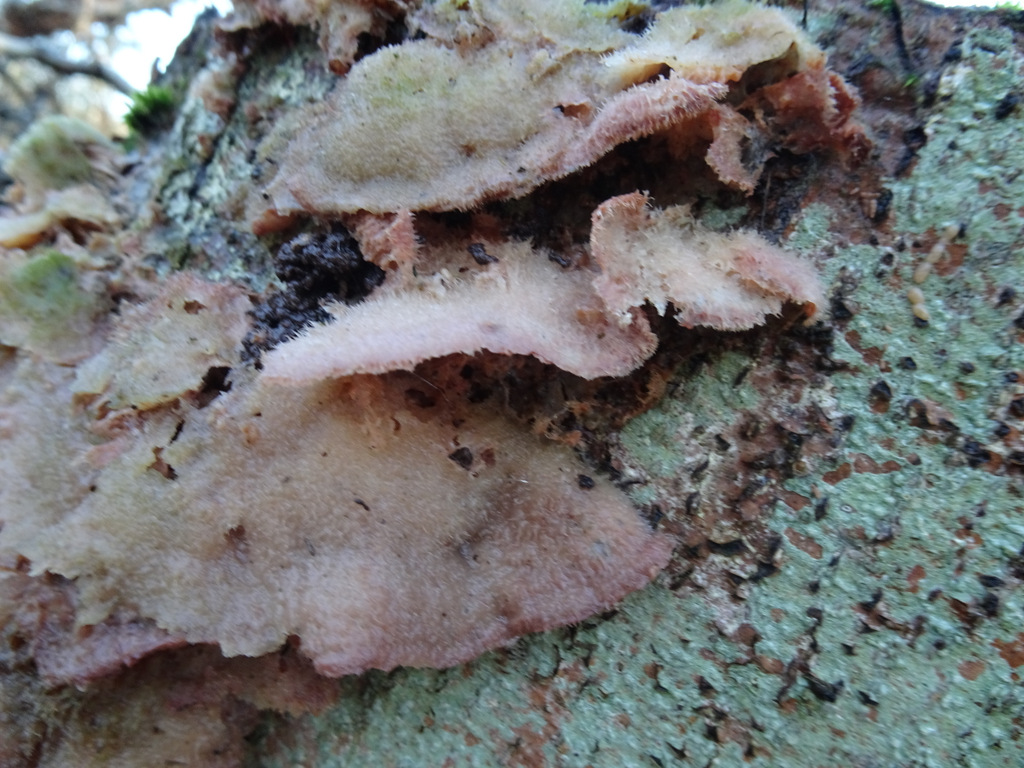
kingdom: Fungi
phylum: Basidiomycota
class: Agaricomycetes
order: Polyporales
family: Meruliaceae
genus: Phlebia
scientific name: Phlebia tremellosa
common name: bævrende åresvamp
